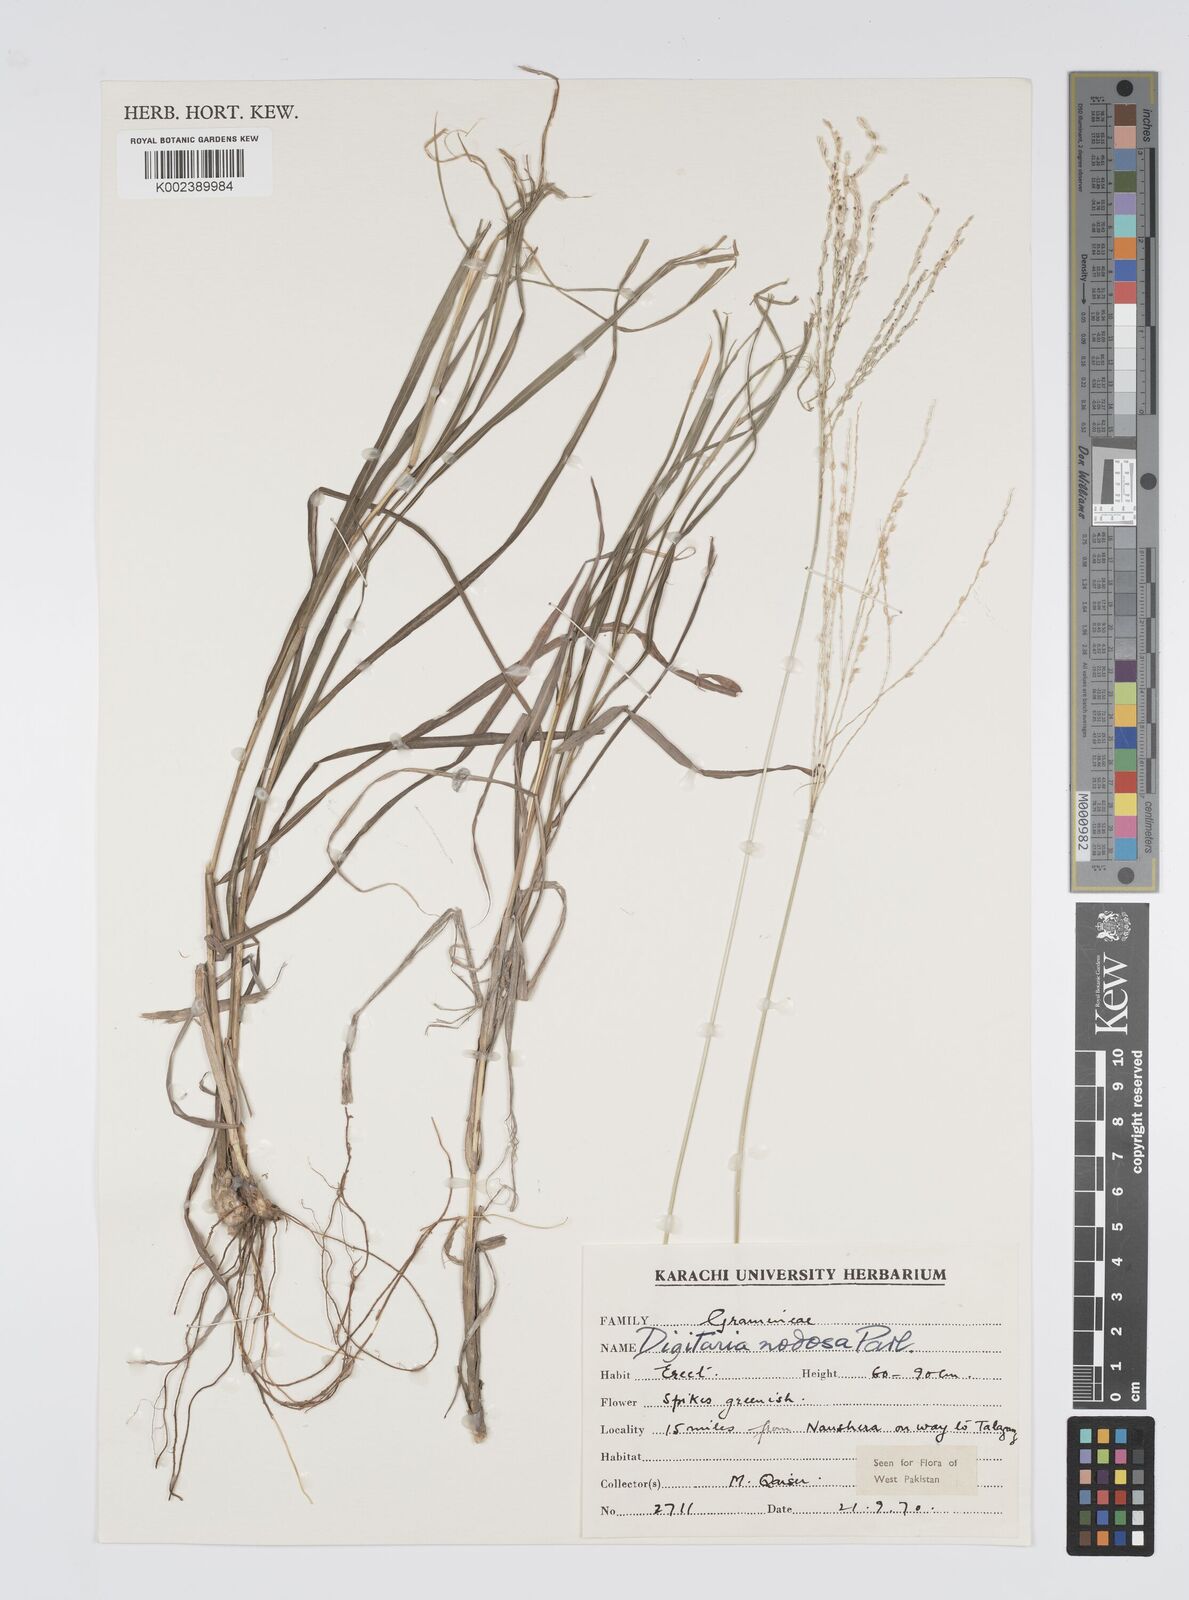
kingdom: Plantae
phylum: Tracheophyta
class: Liliopsida
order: Poales
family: Poaceae
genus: Digitaria
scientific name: Digitaria nodosa
